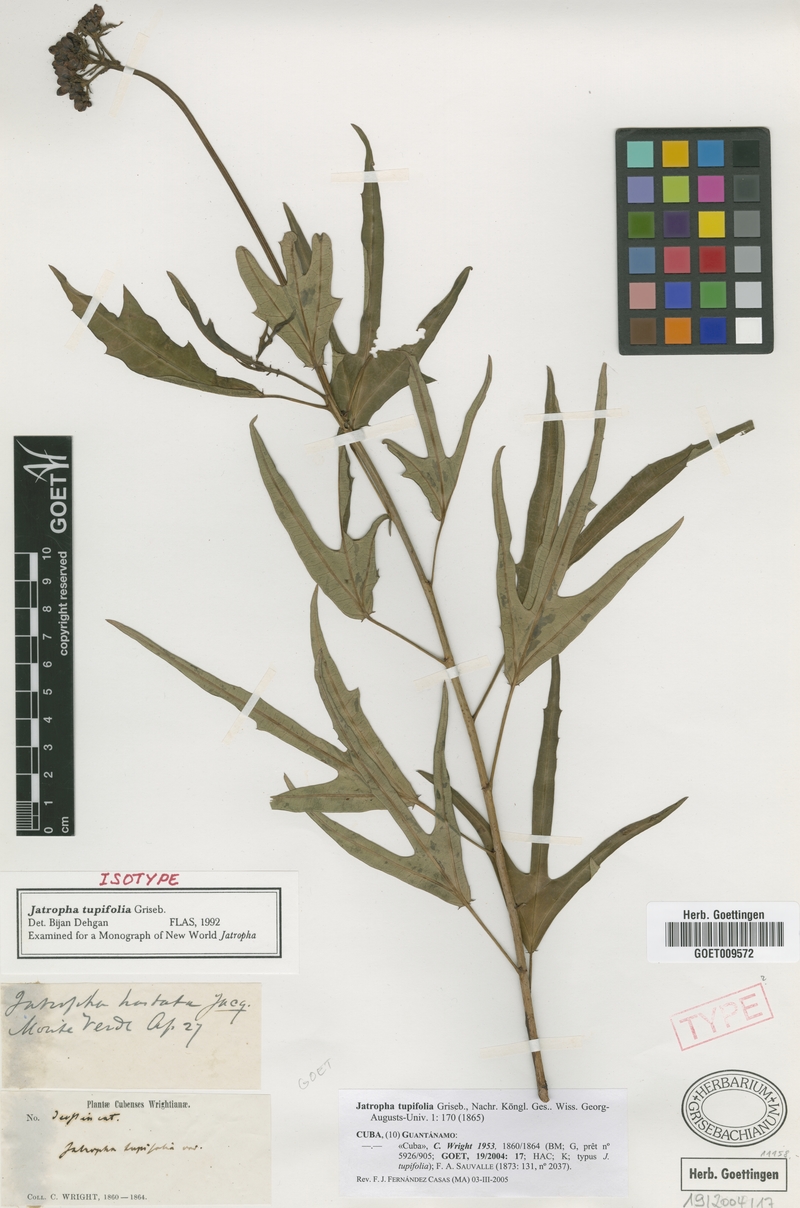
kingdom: Plantae
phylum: Tracheophyta
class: Magnoliopsida
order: Malpighiales
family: Euphorbiaceae
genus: Jatropha
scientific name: Jatropha tupifolia
